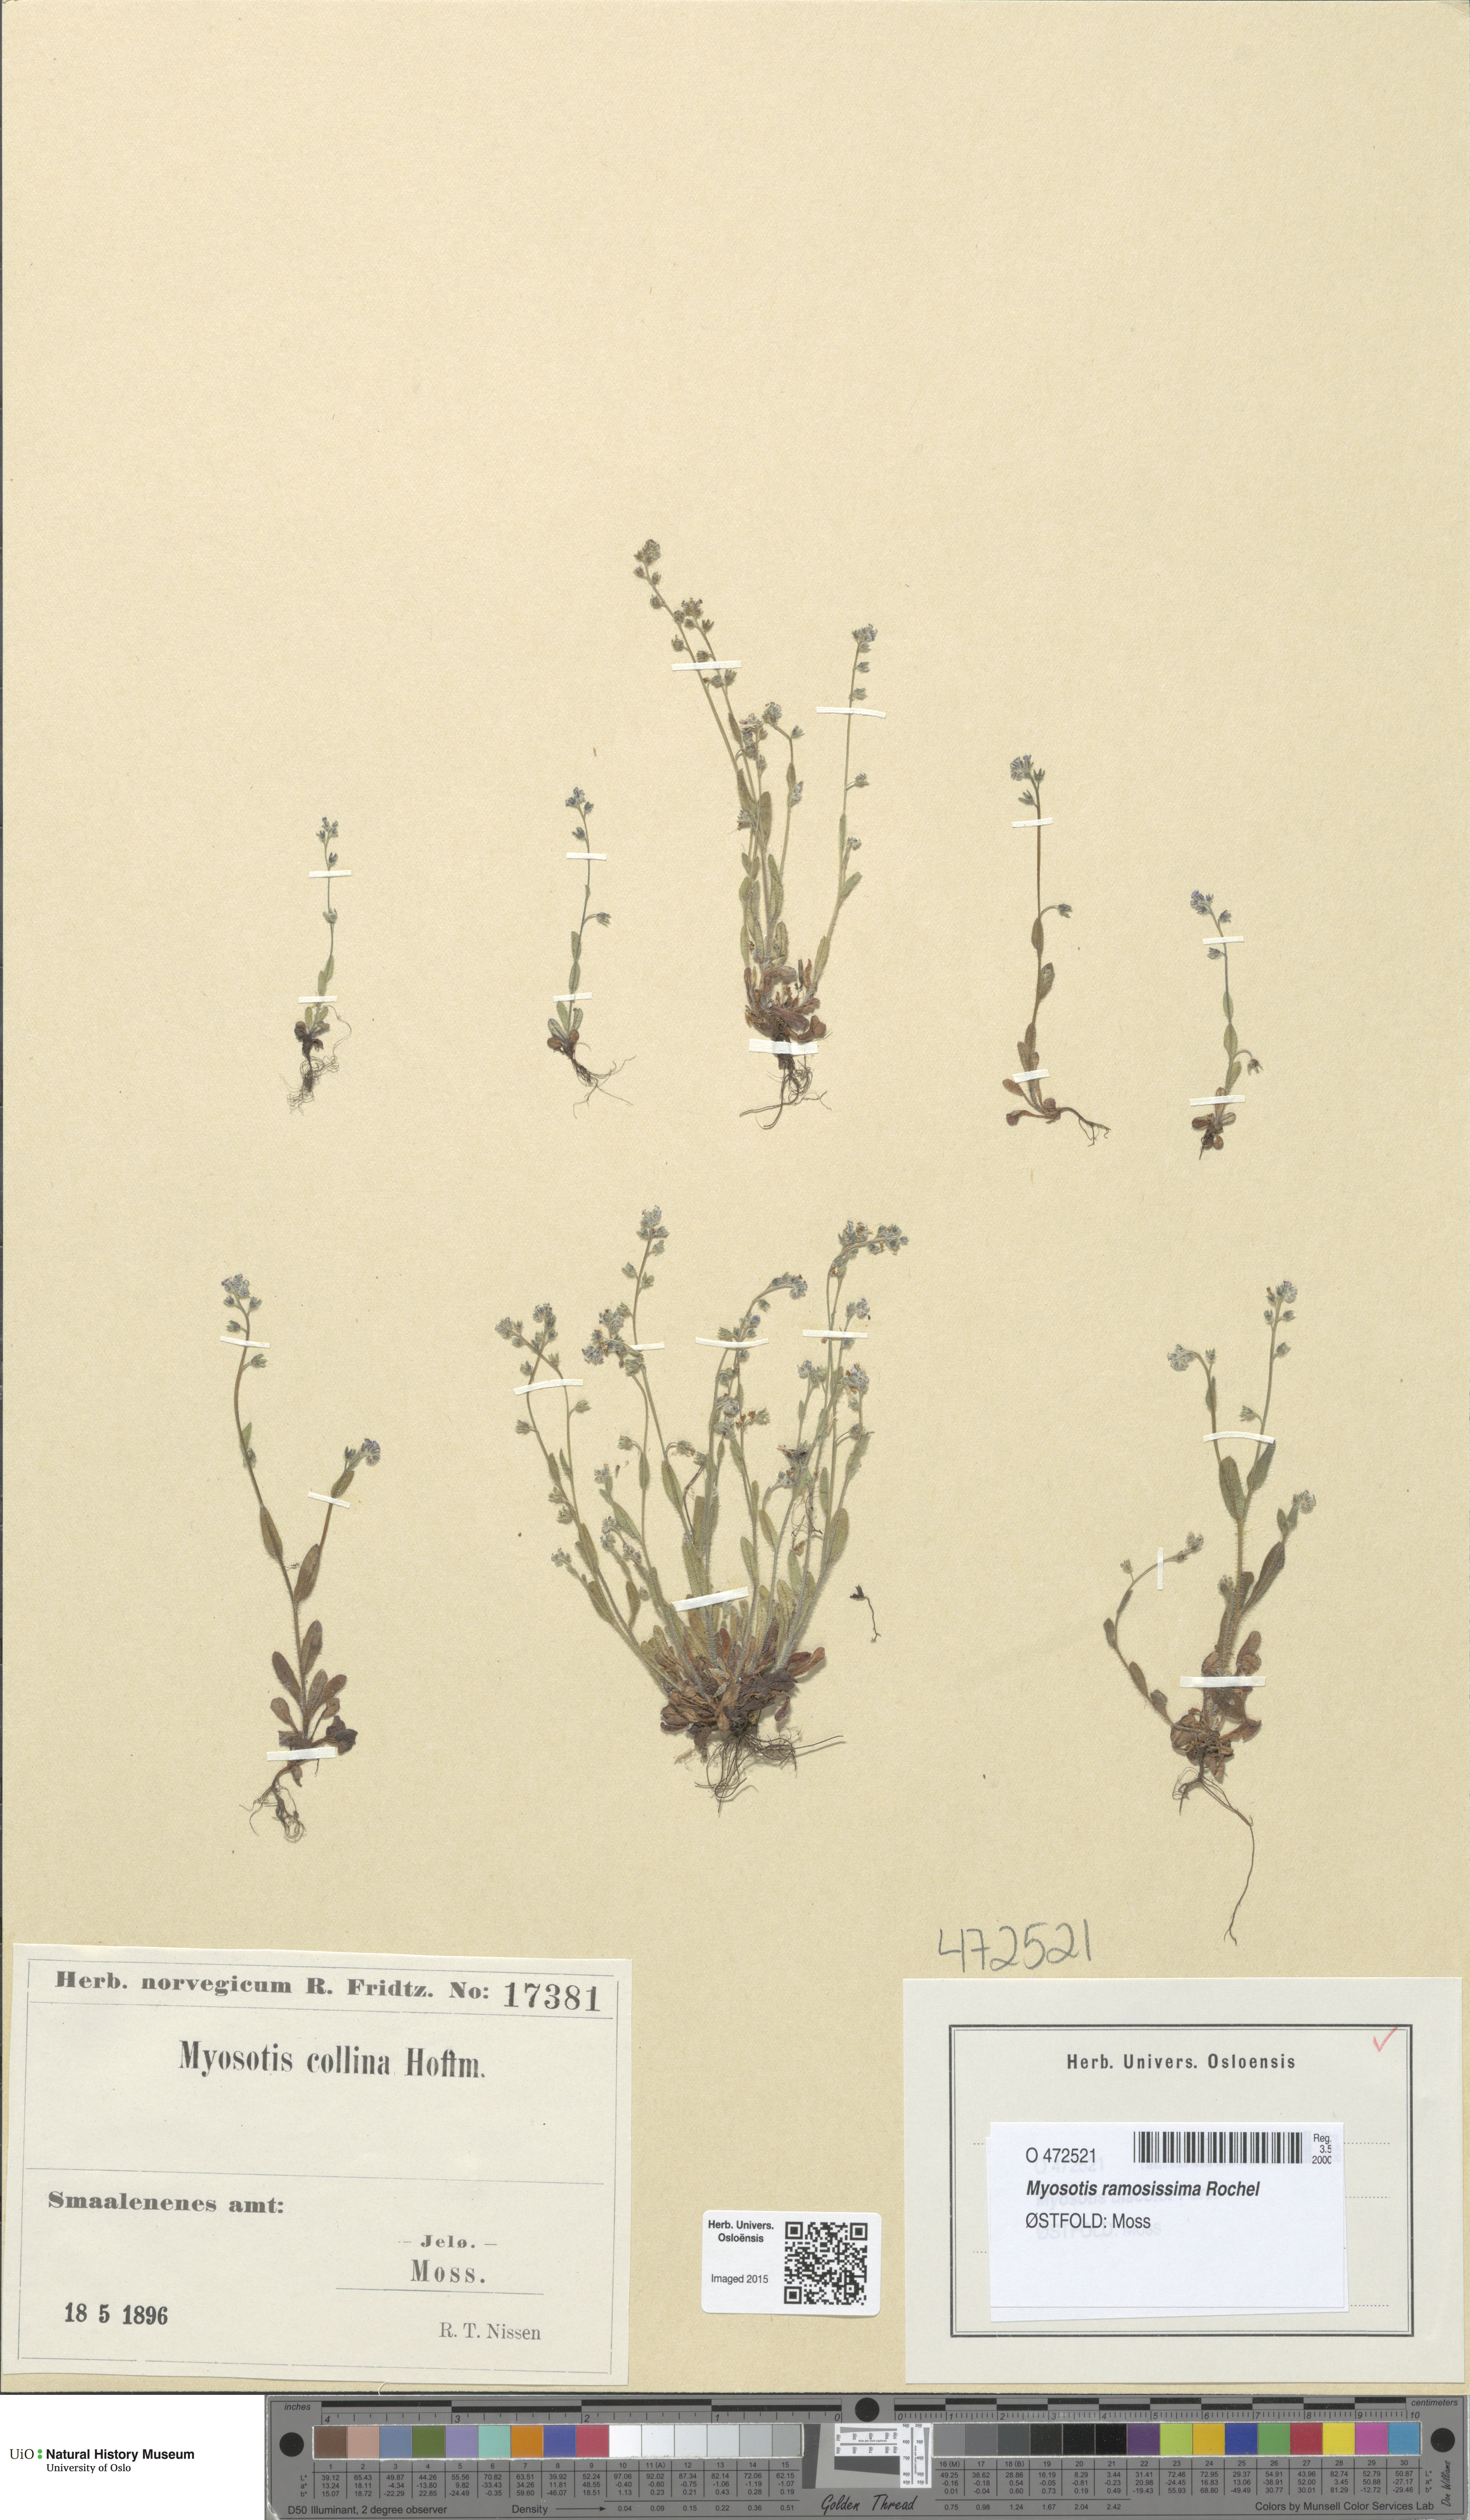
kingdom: Plantae
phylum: Tracheophyta
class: Magnoliopsida
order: Boraginales
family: Boraginaceae
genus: Myosotis
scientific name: Myosotis ramosissima
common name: Early forget-me-not
